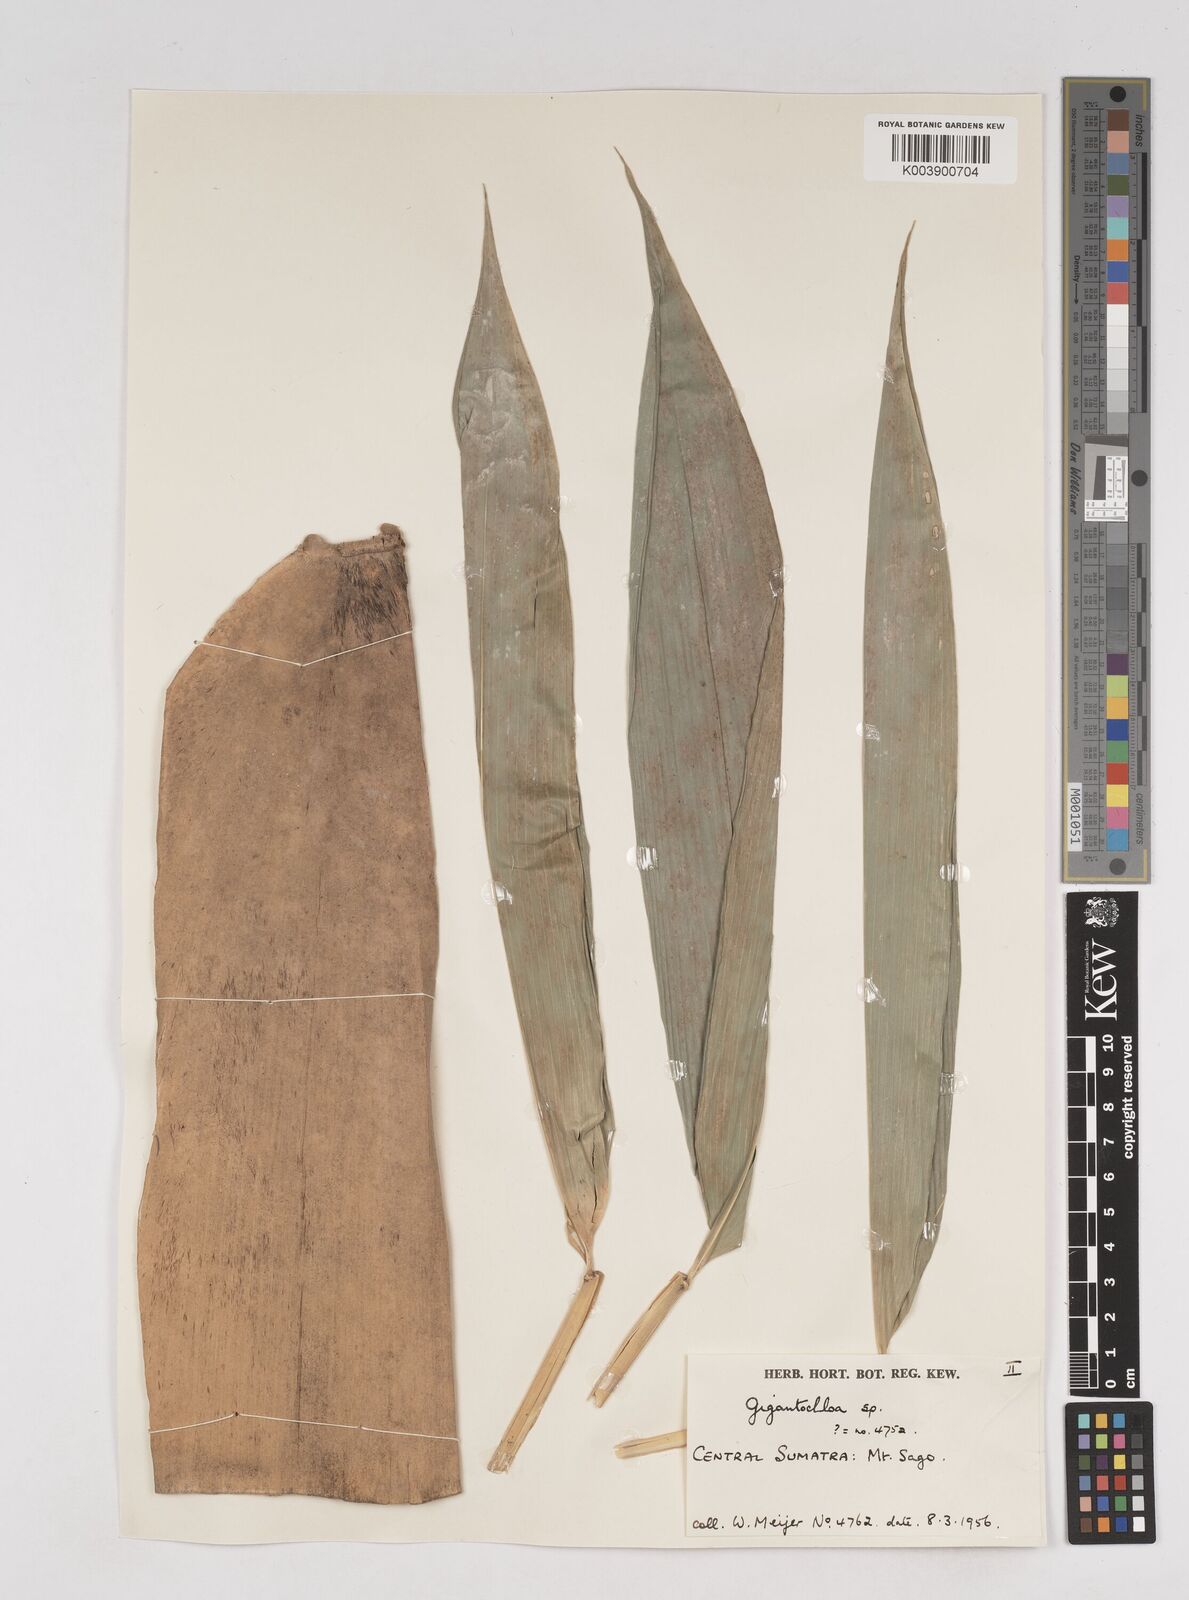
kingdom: Plantae
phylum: Tracheophyta
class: Liliopsida
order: Poales
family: Poaceae
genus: Gigantochloa
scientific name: Gigantochloa
